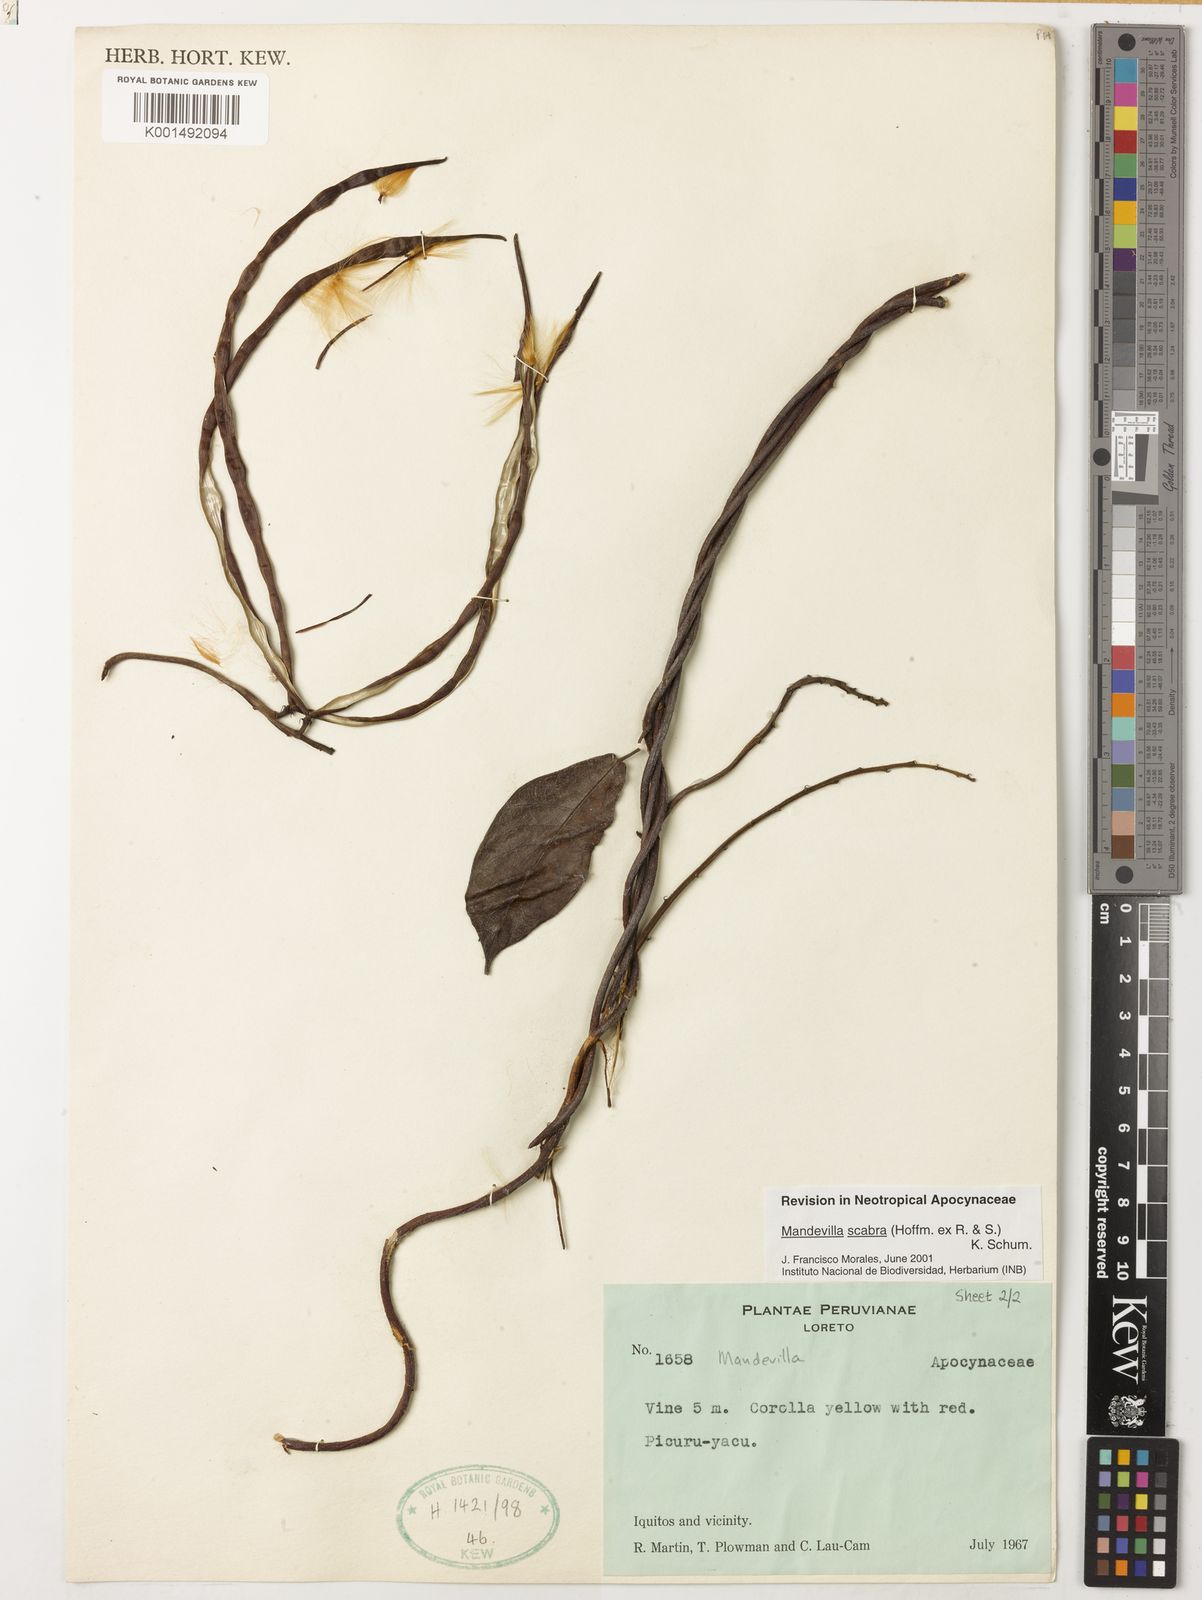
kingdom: Plantae
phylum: Tracheophyta
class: Magnoliopsida
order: Gentianales
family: Apocynaceae
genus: Mandevilla
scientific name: Mandevilla scabra
